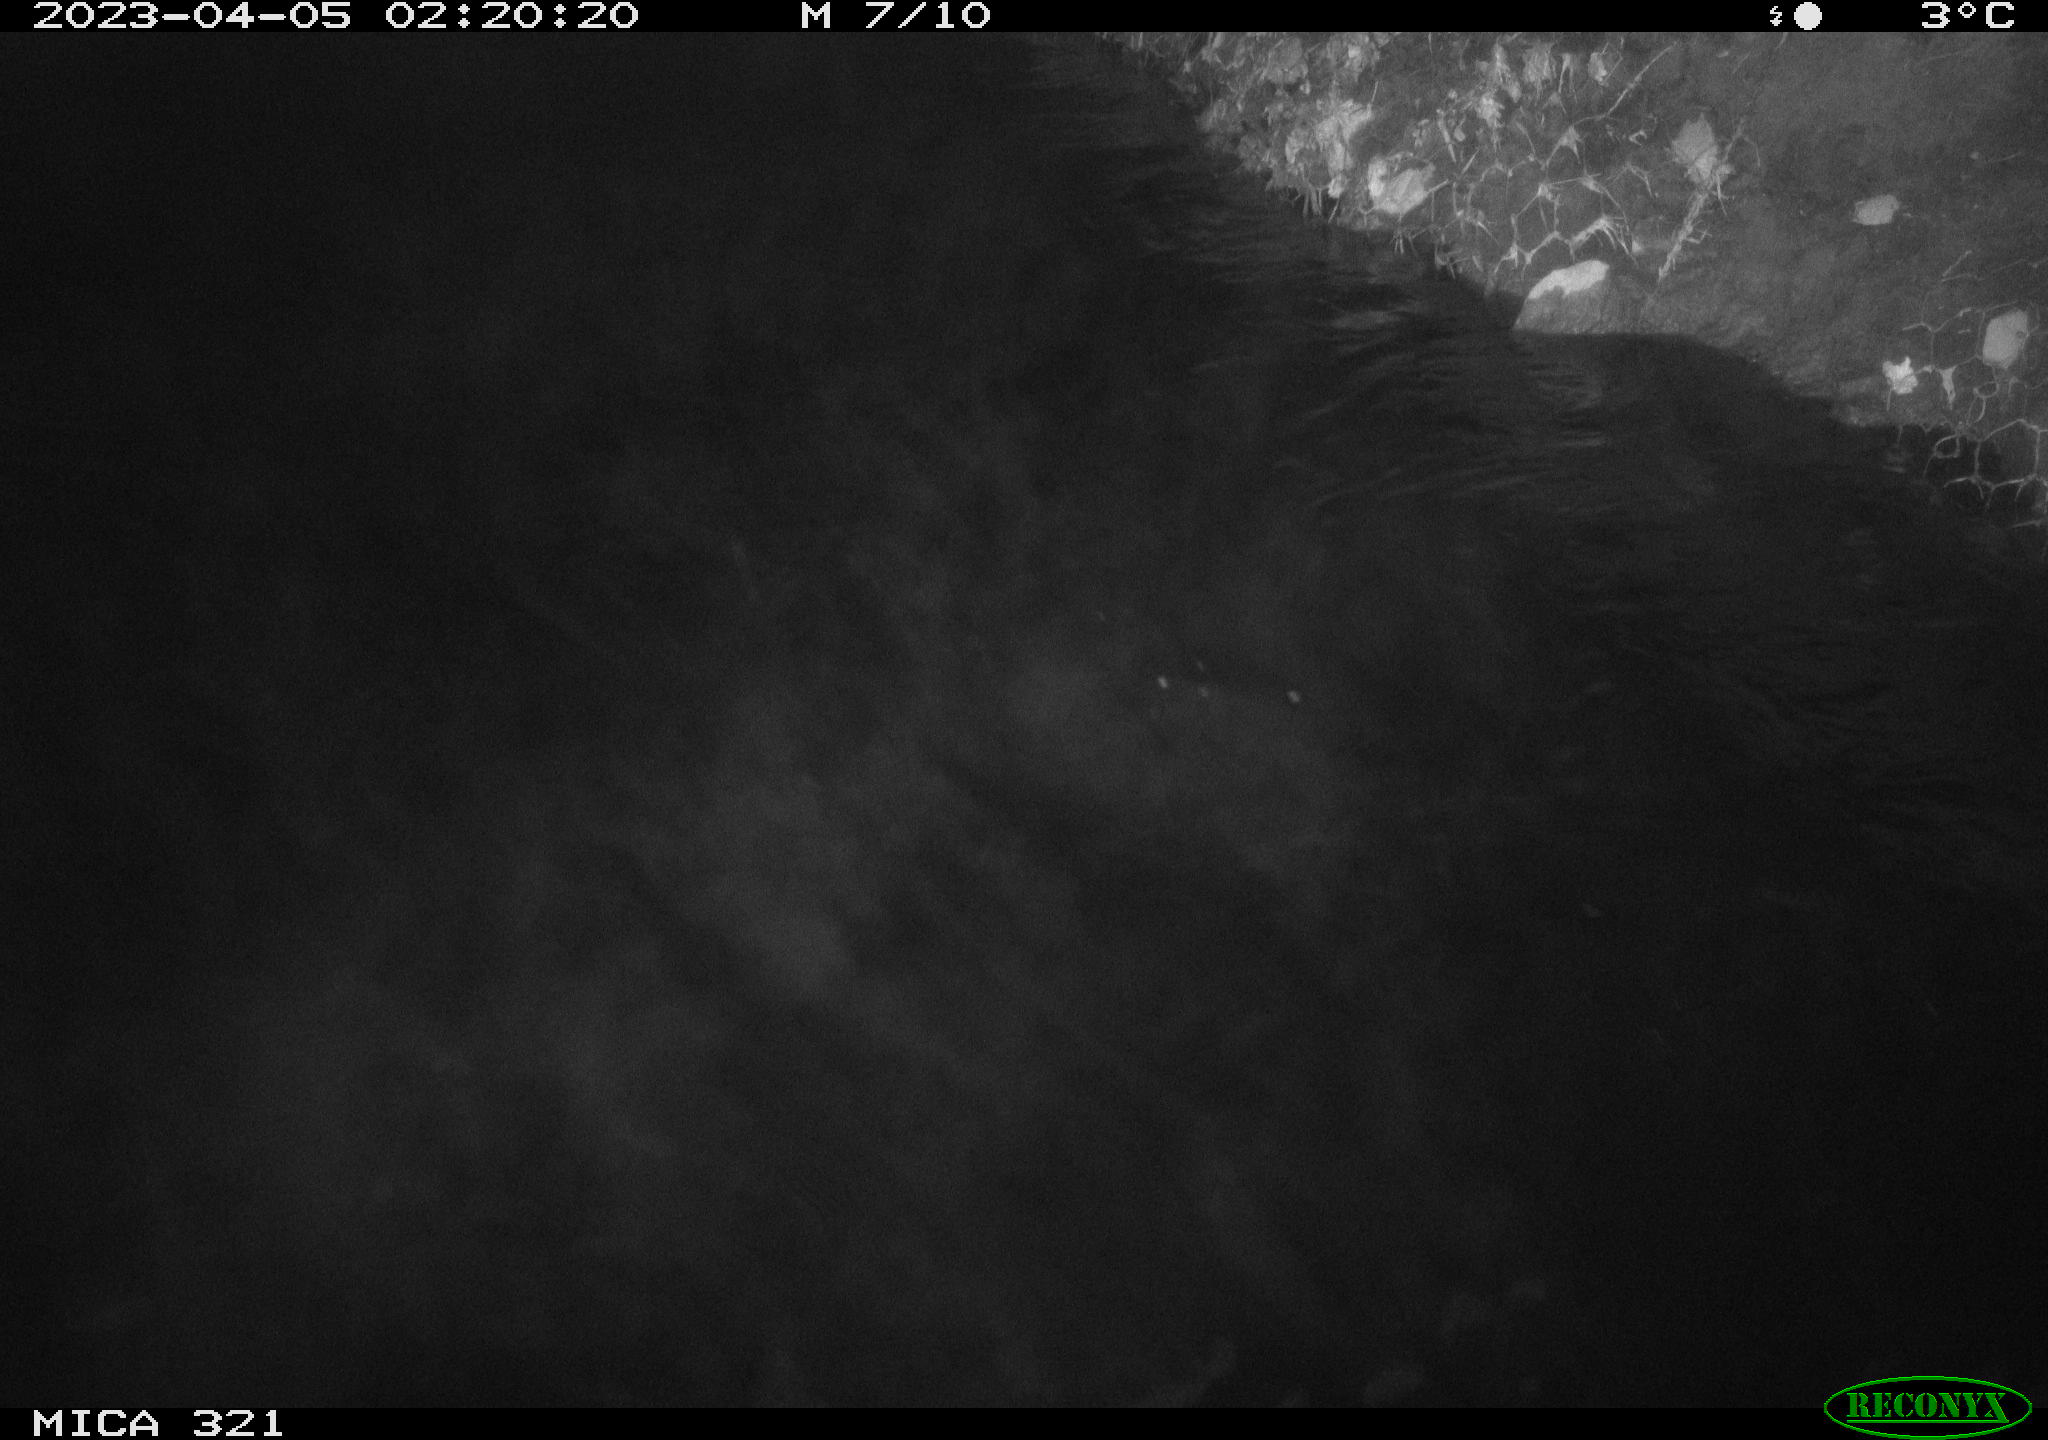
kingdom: Animalia
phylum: Chordata
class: Aves
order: Anseriformes
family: Anatidae
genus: Anas
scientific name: Anas
